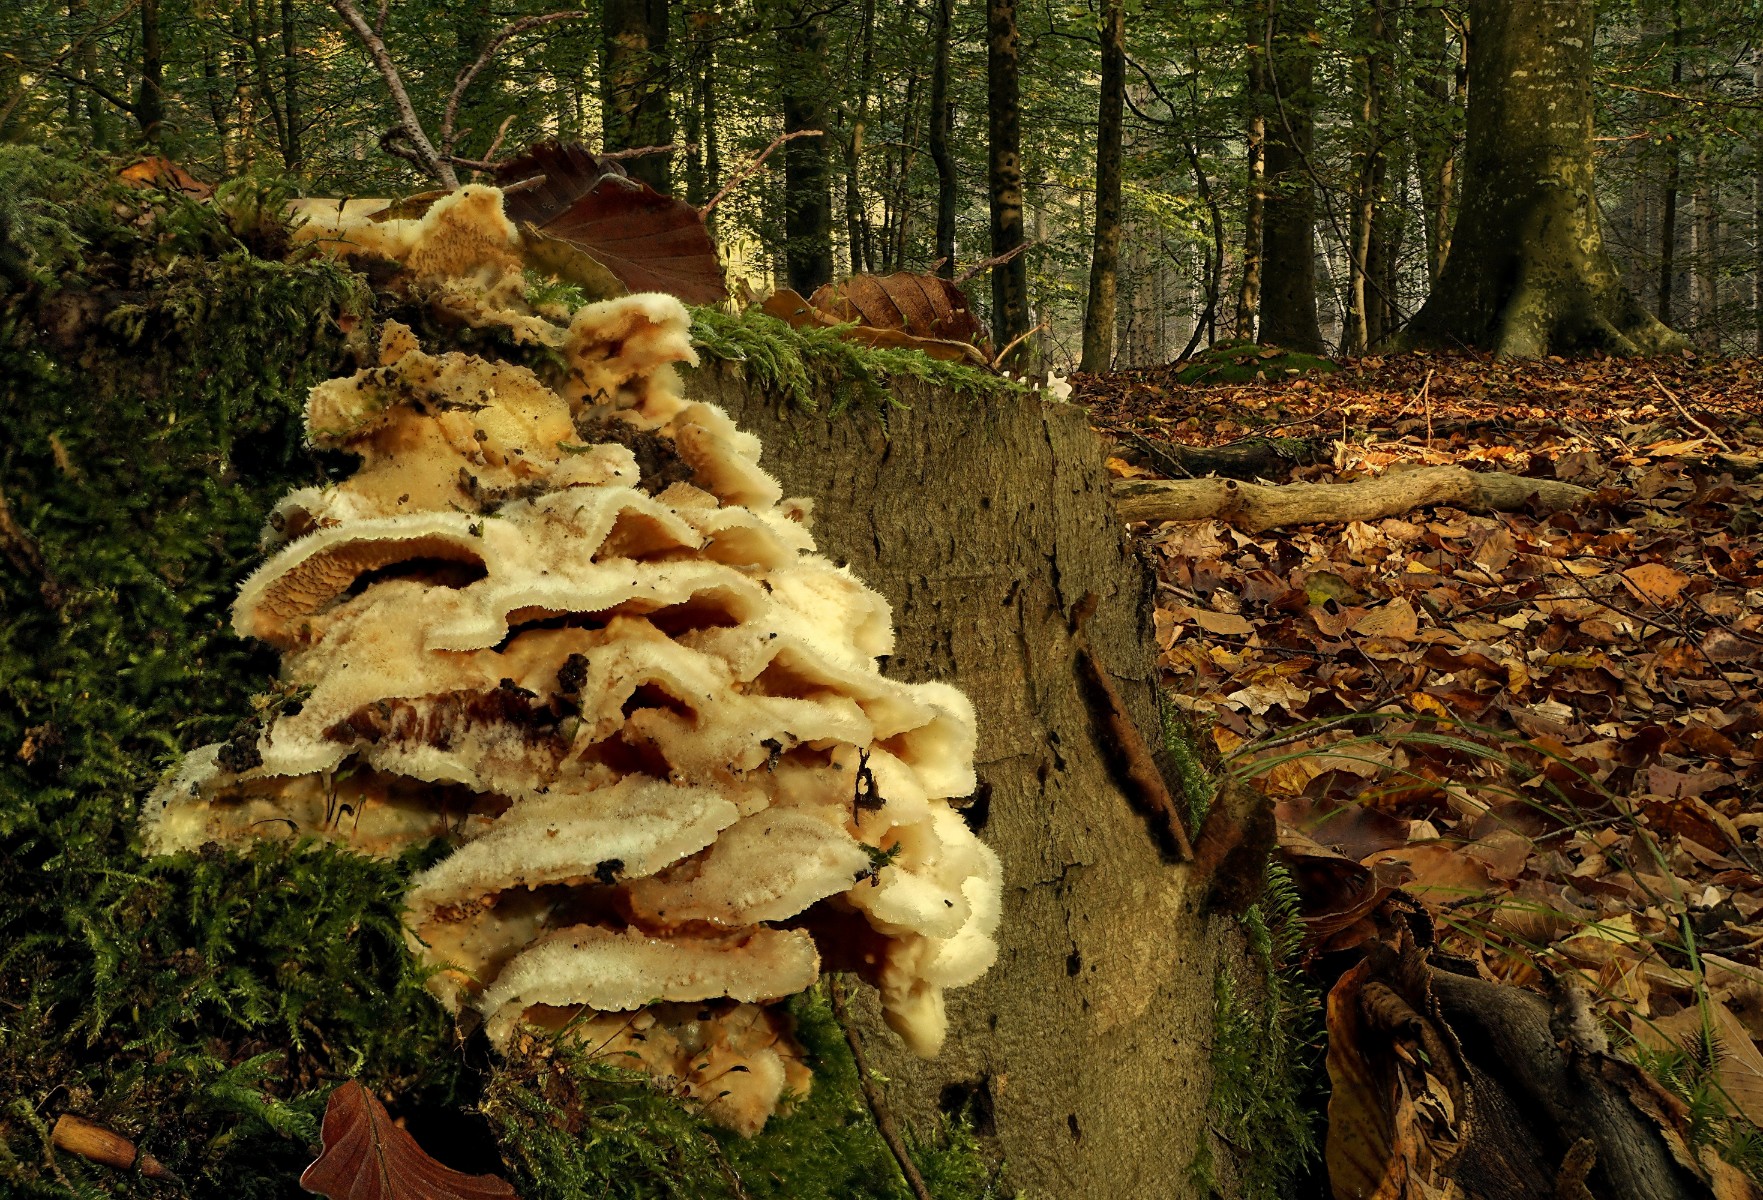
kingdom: Fungi
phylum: Basidiomycota
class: Agaricomycetes
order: Polyporales
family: Meruliaceae
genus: Phlebia
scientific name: Phlebia tremellosa
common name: bævrende åresvamp
